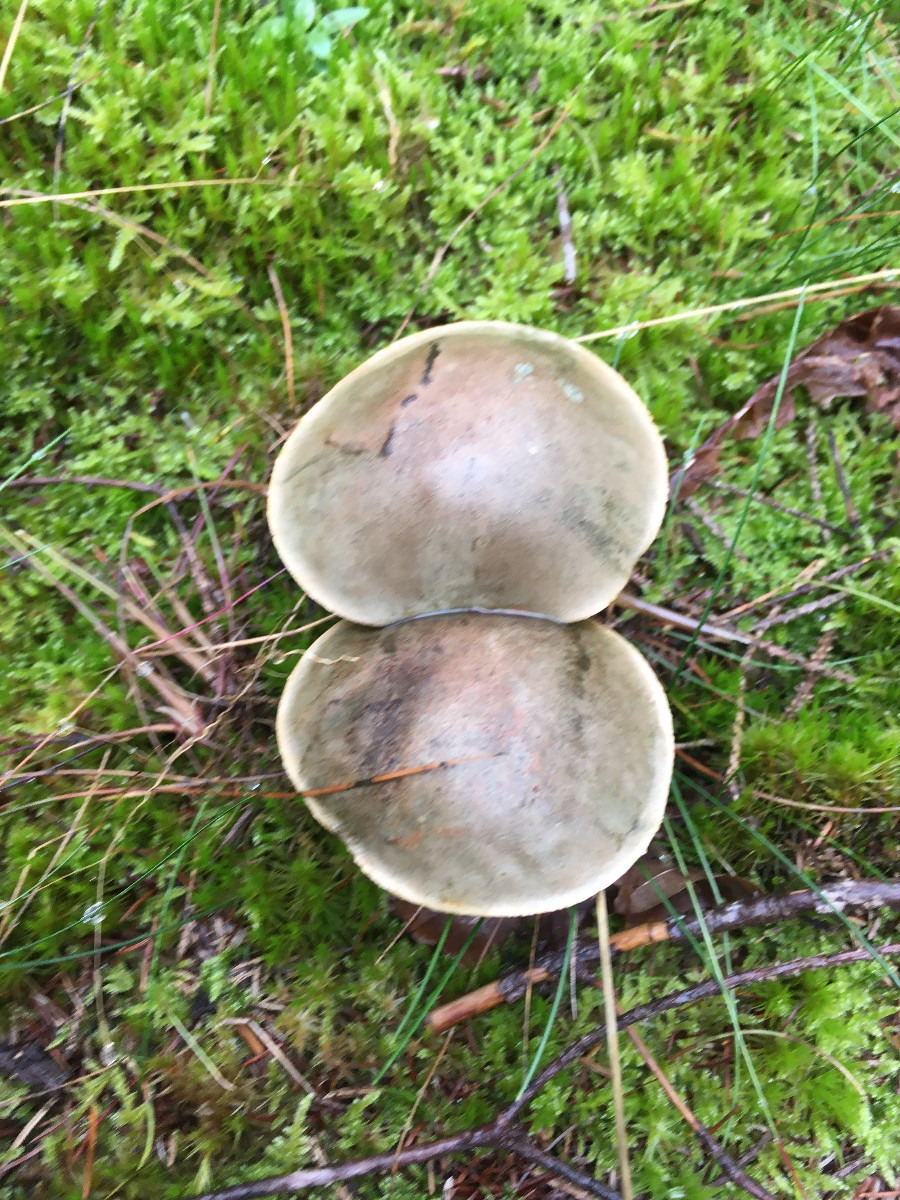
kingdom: Fungi
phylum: Basidiomycota
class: Agaricomycetes
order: Boletales
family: Boletaceae
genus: Leccinum
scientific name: Leccinum
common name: skælrørhat
